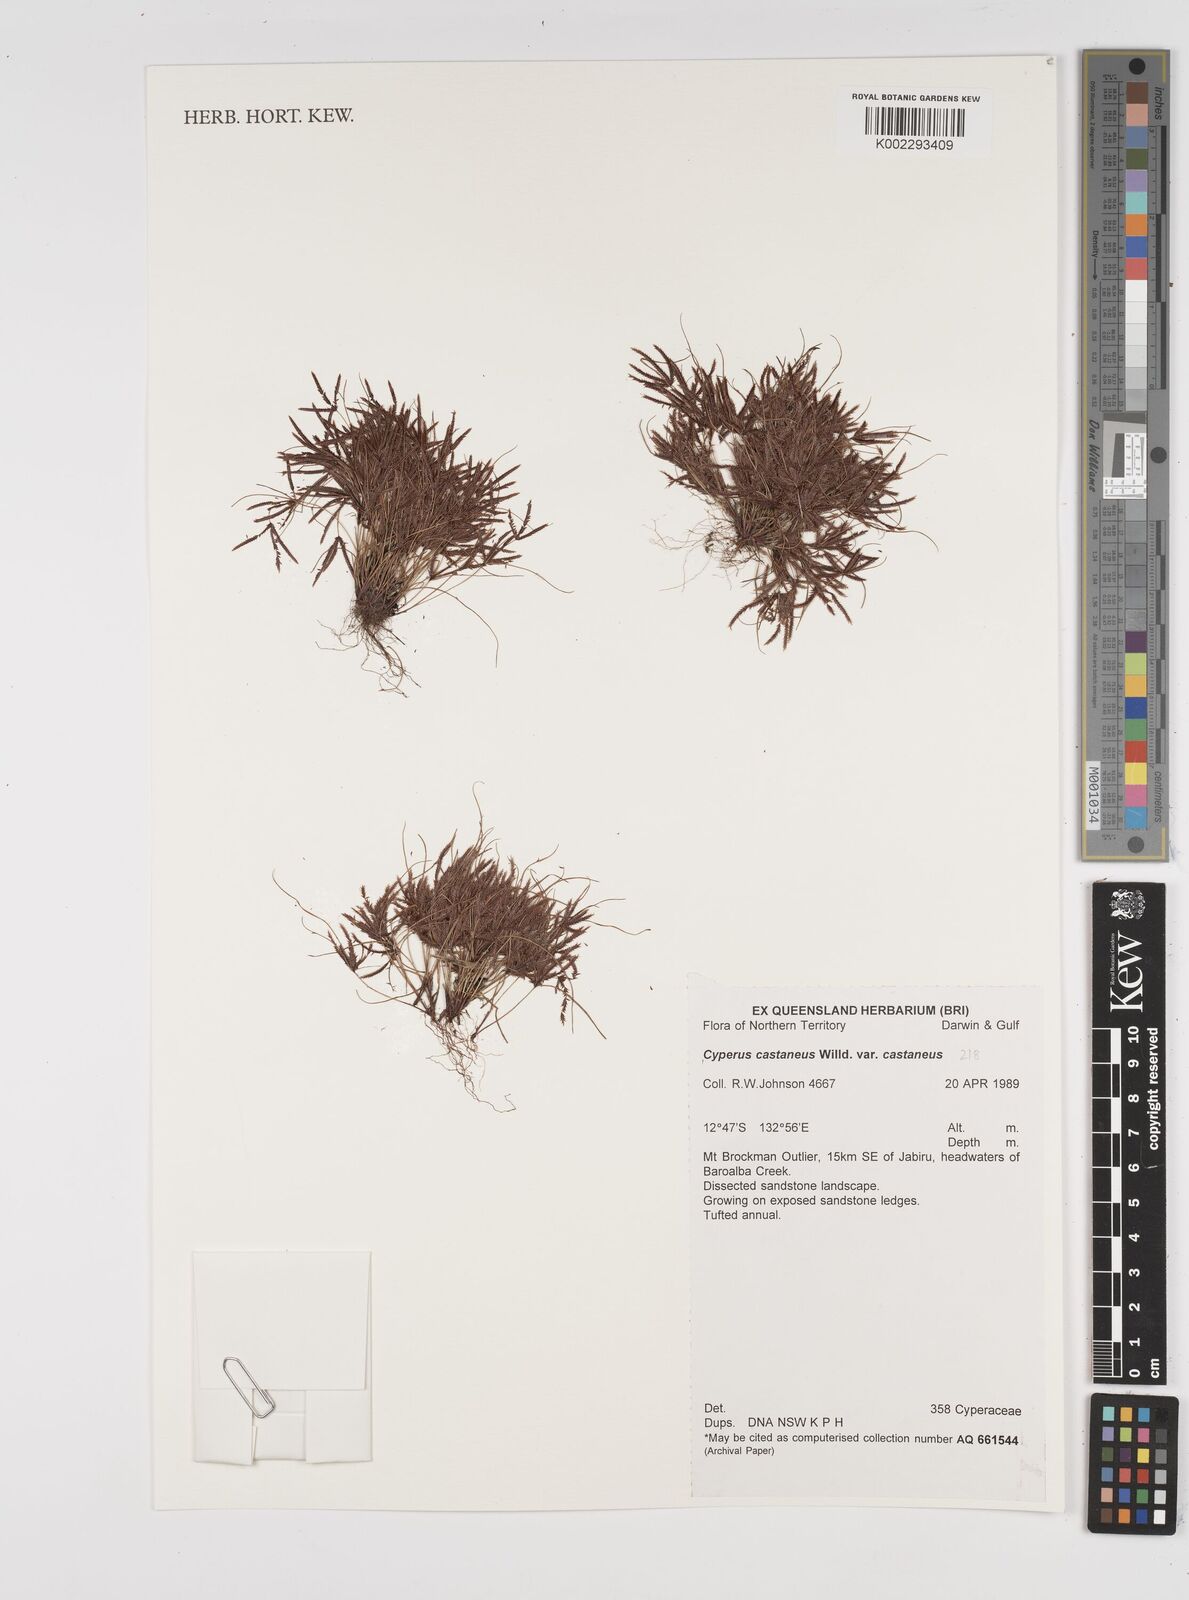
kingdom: Plantae
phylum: Tracheophyta
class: Liliopsida
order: Poales
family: Cyperaceae
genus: Cyperus
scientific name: Cyperus castaneus
